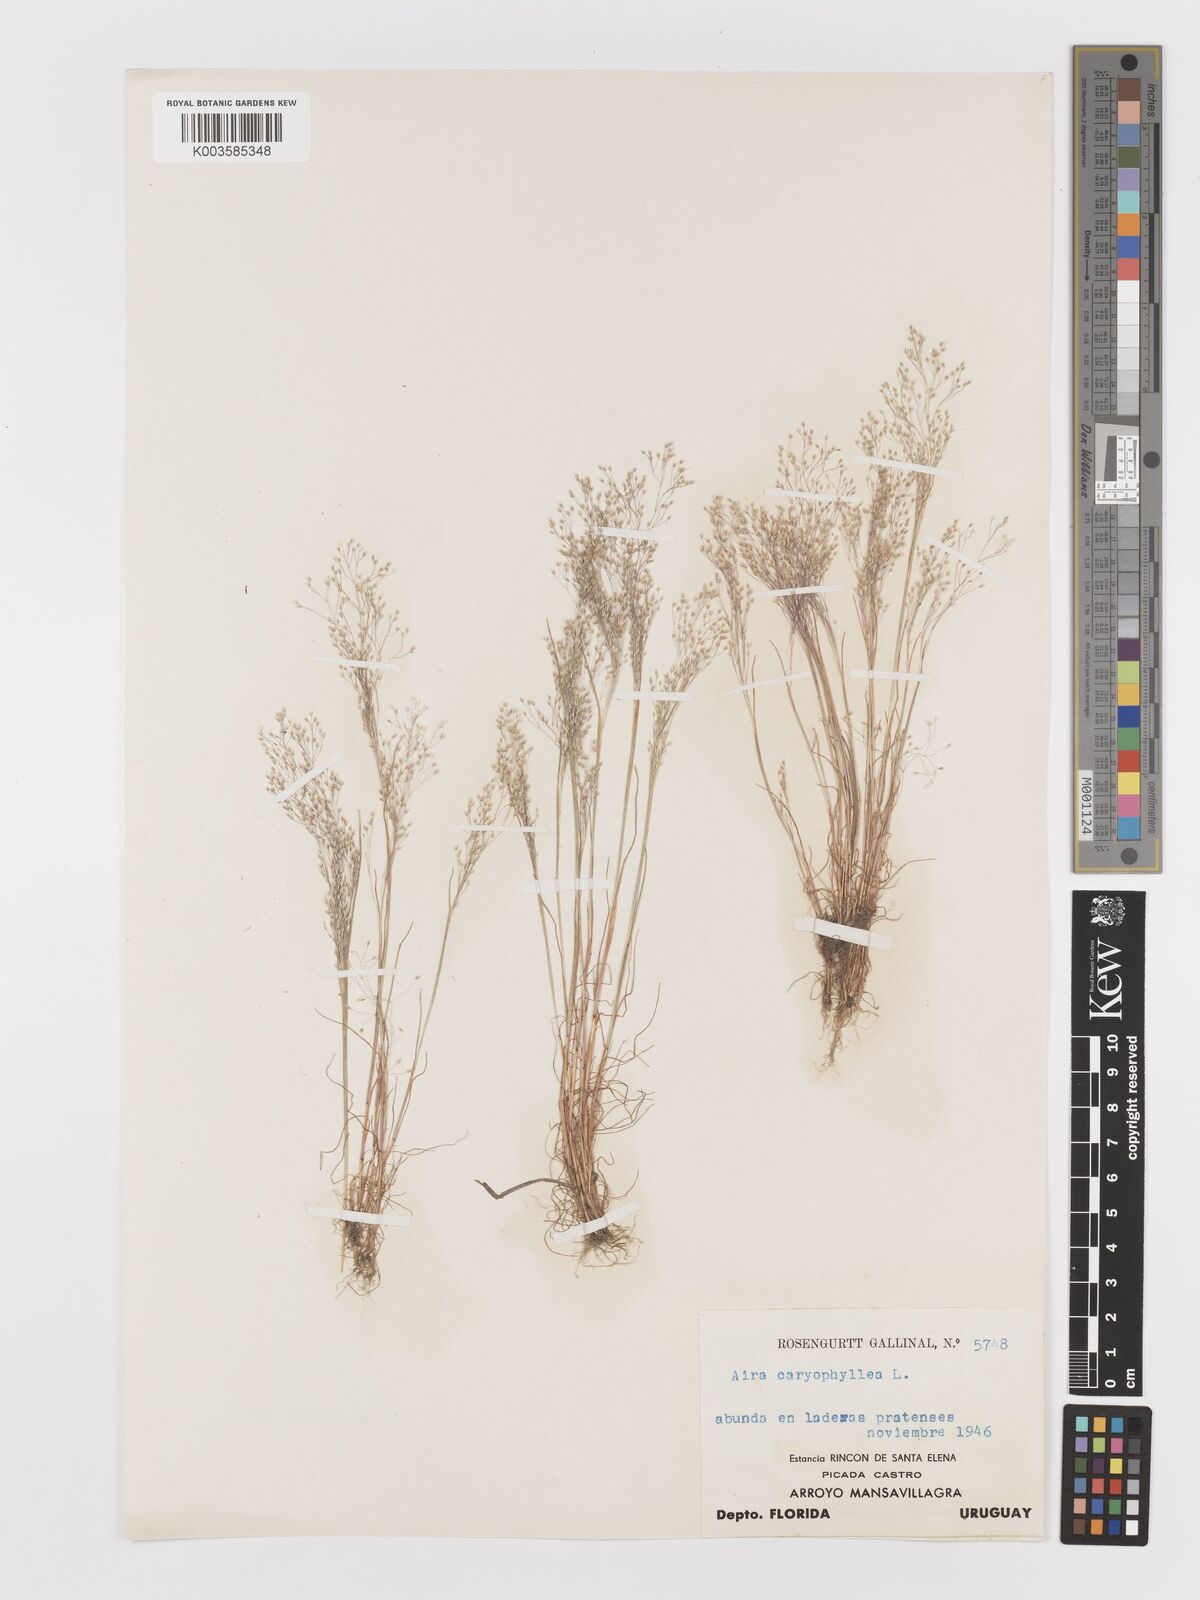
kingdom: Plantae
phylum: Tracheophyta
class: Liliopsida
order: Poales
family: Poaceae
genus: Aira
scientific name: Aira elegans
